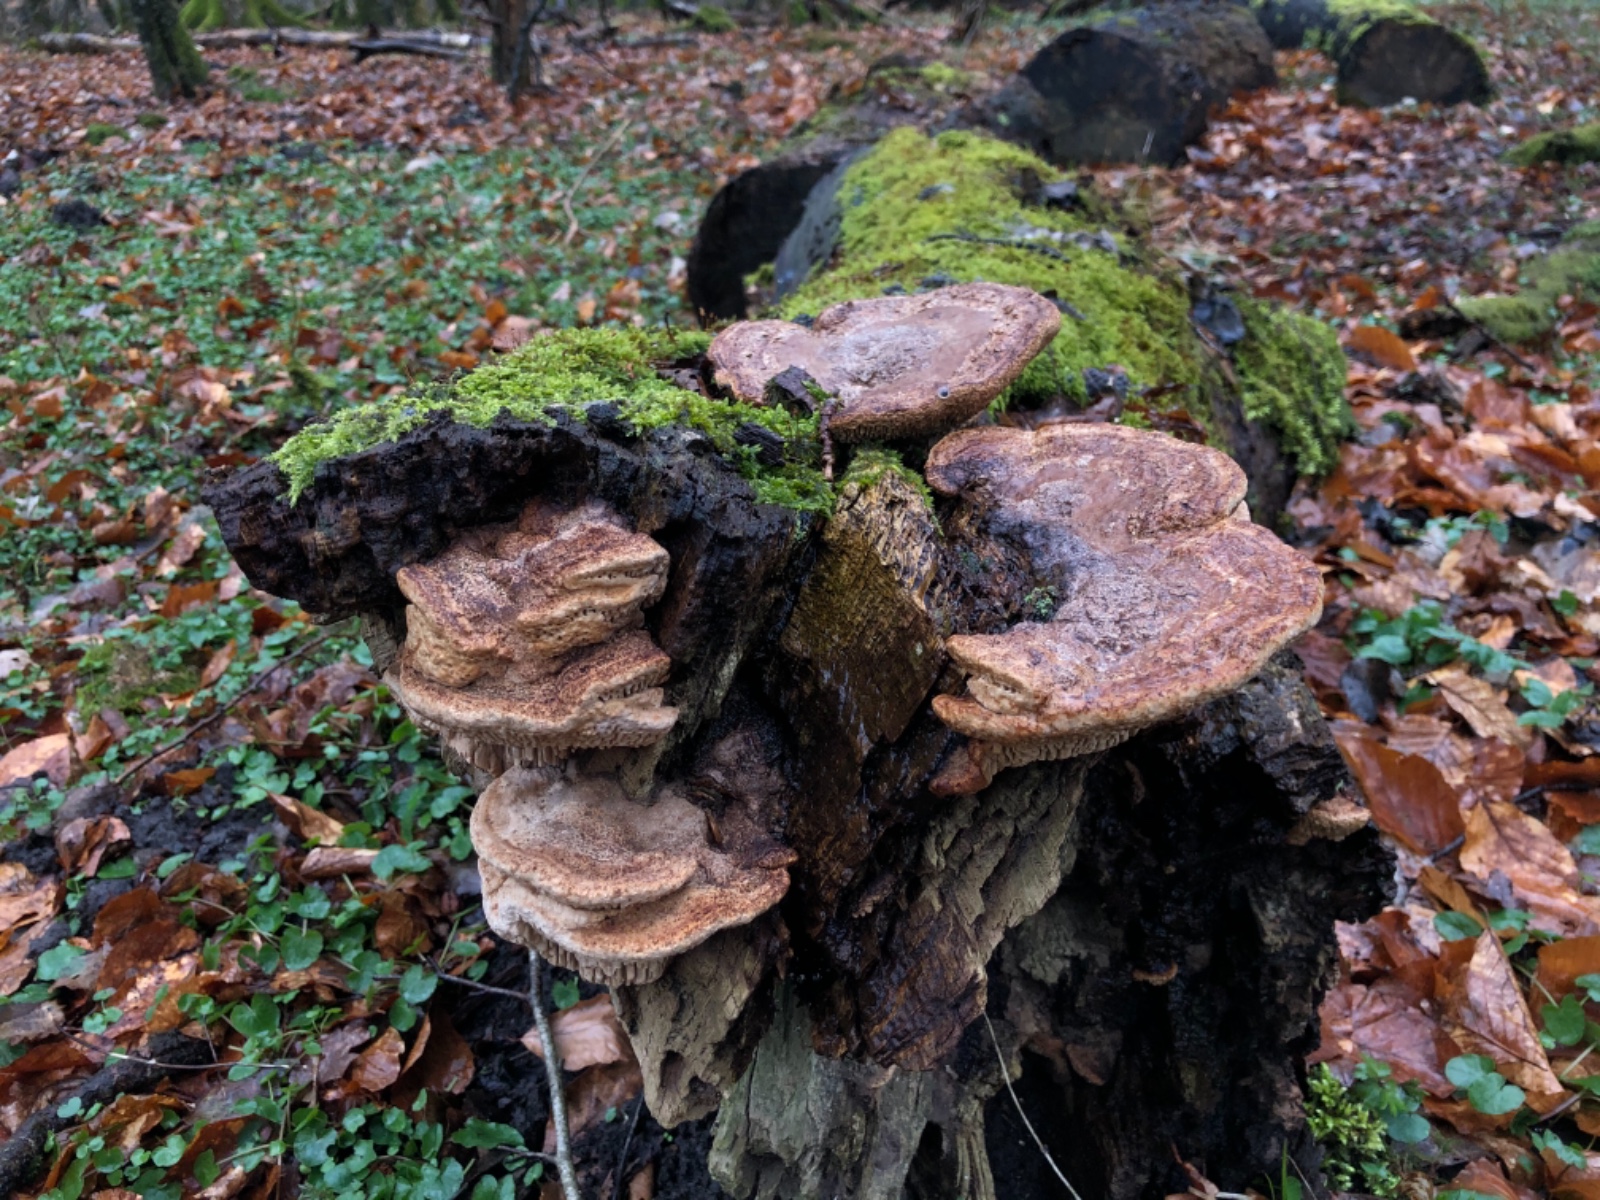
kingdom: Fungi
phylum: Basidiomycota
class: Agaricomycetes
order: Polyporales
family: Fomitopsidaceae
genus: Daedalea
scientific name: Daedalea quercina
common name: ege-labyrintsvamp
